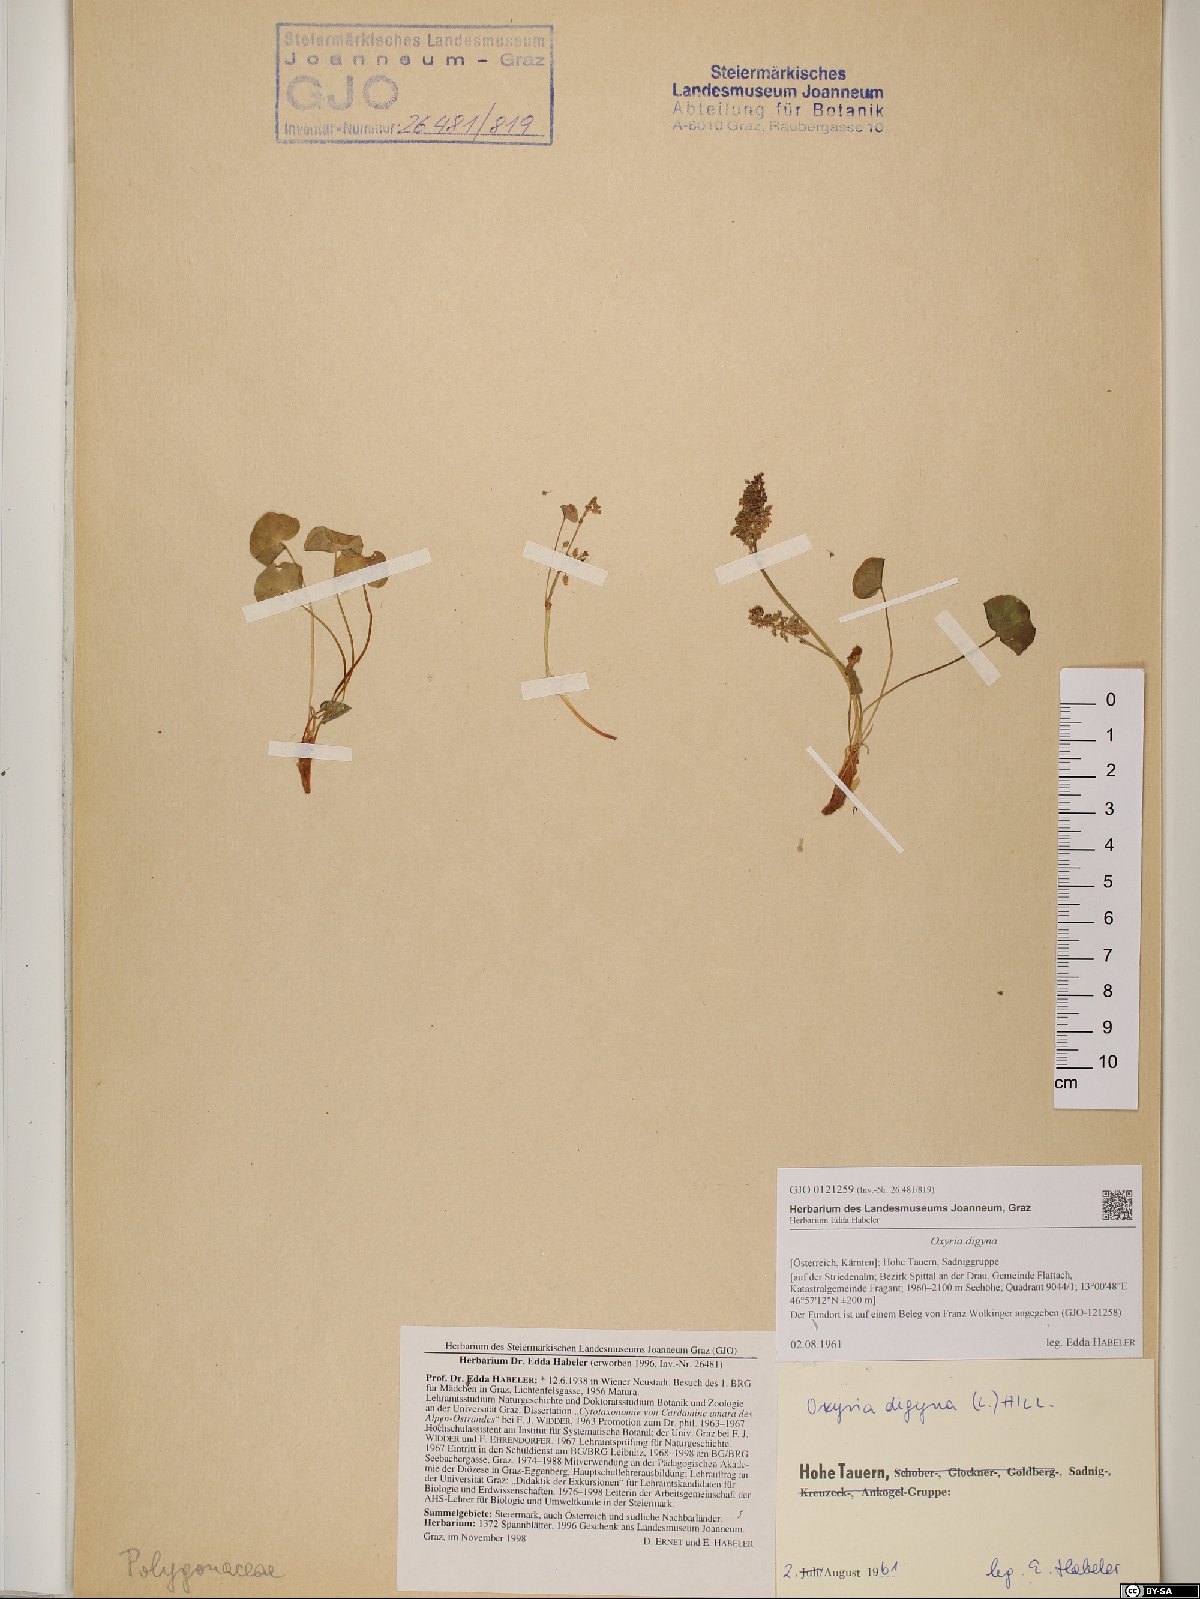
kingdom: Plantae
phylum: Tracheophyta
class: Magnoliopsida
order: Caryophyllales
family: Polygonaceae
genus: Oxyria
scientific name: Oxyria digyna
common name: Alpine mountain-sorrel
